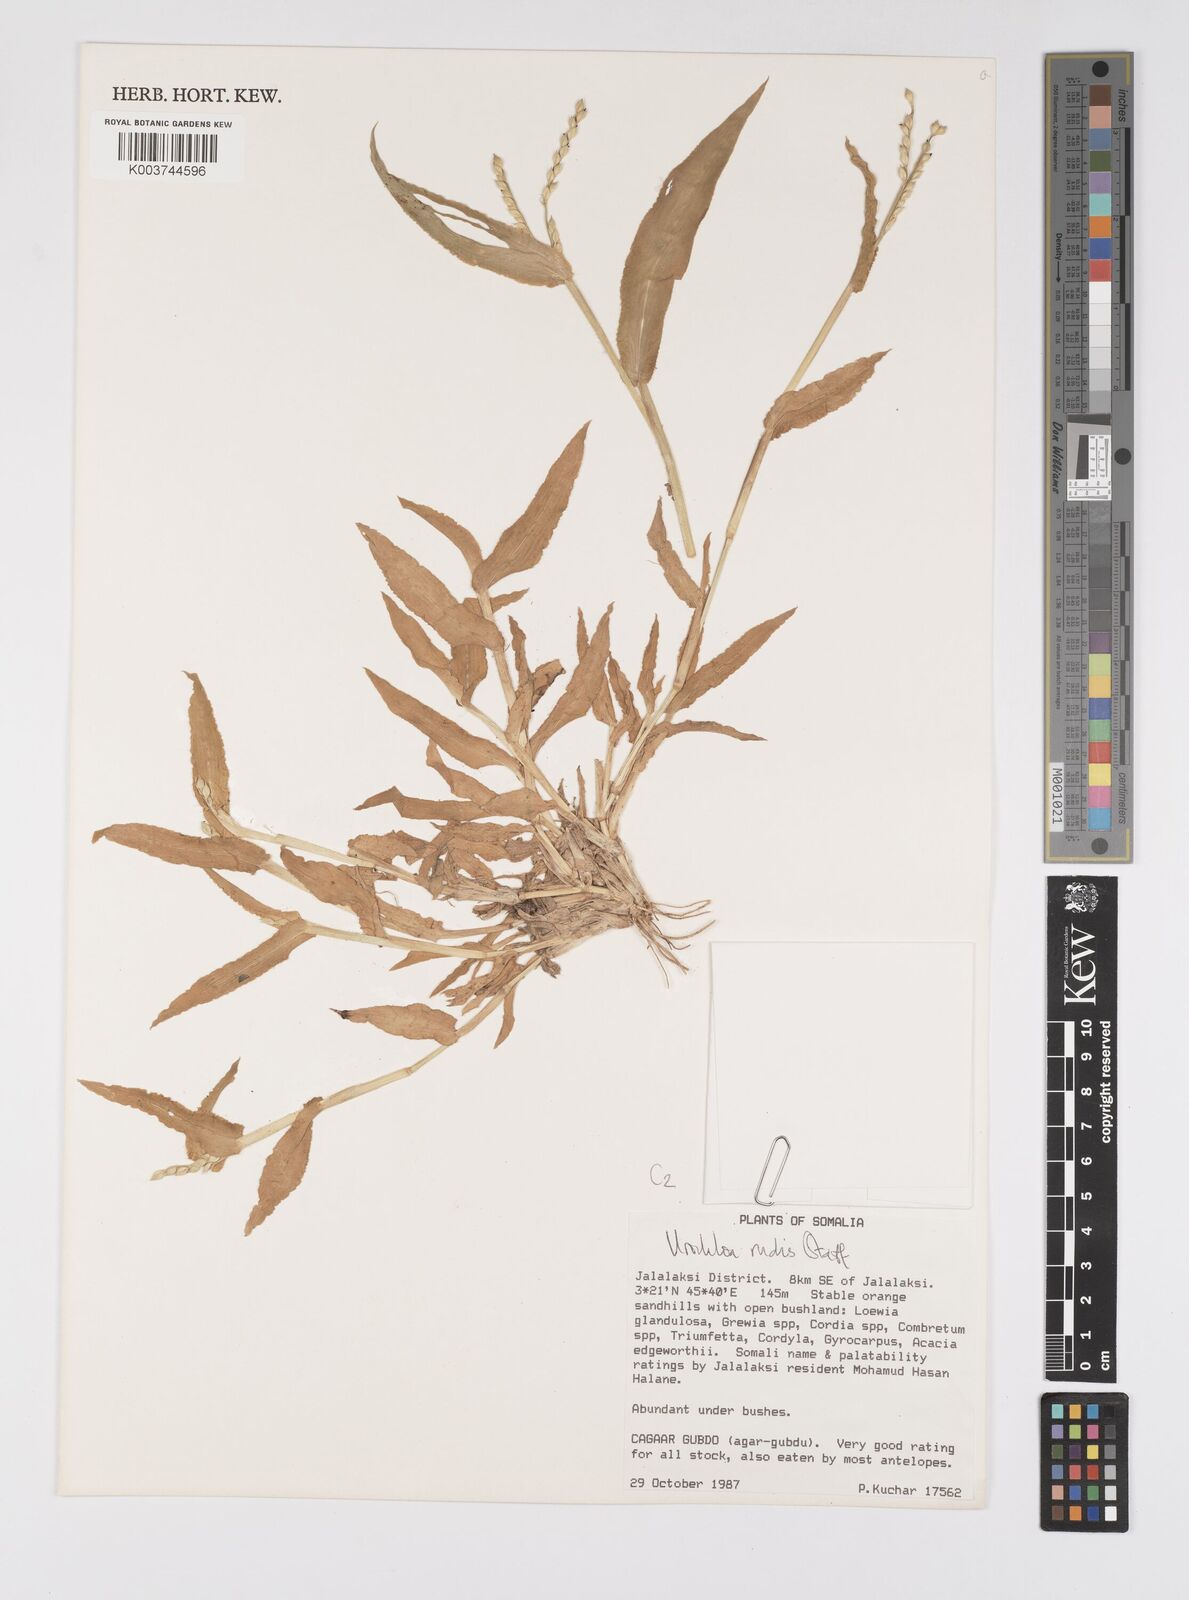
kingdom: Plantae
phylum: Tracheophyta
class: Liliopsida
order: Poales
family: Poaceae
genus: Urochloa
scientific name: Urochloa rudis
